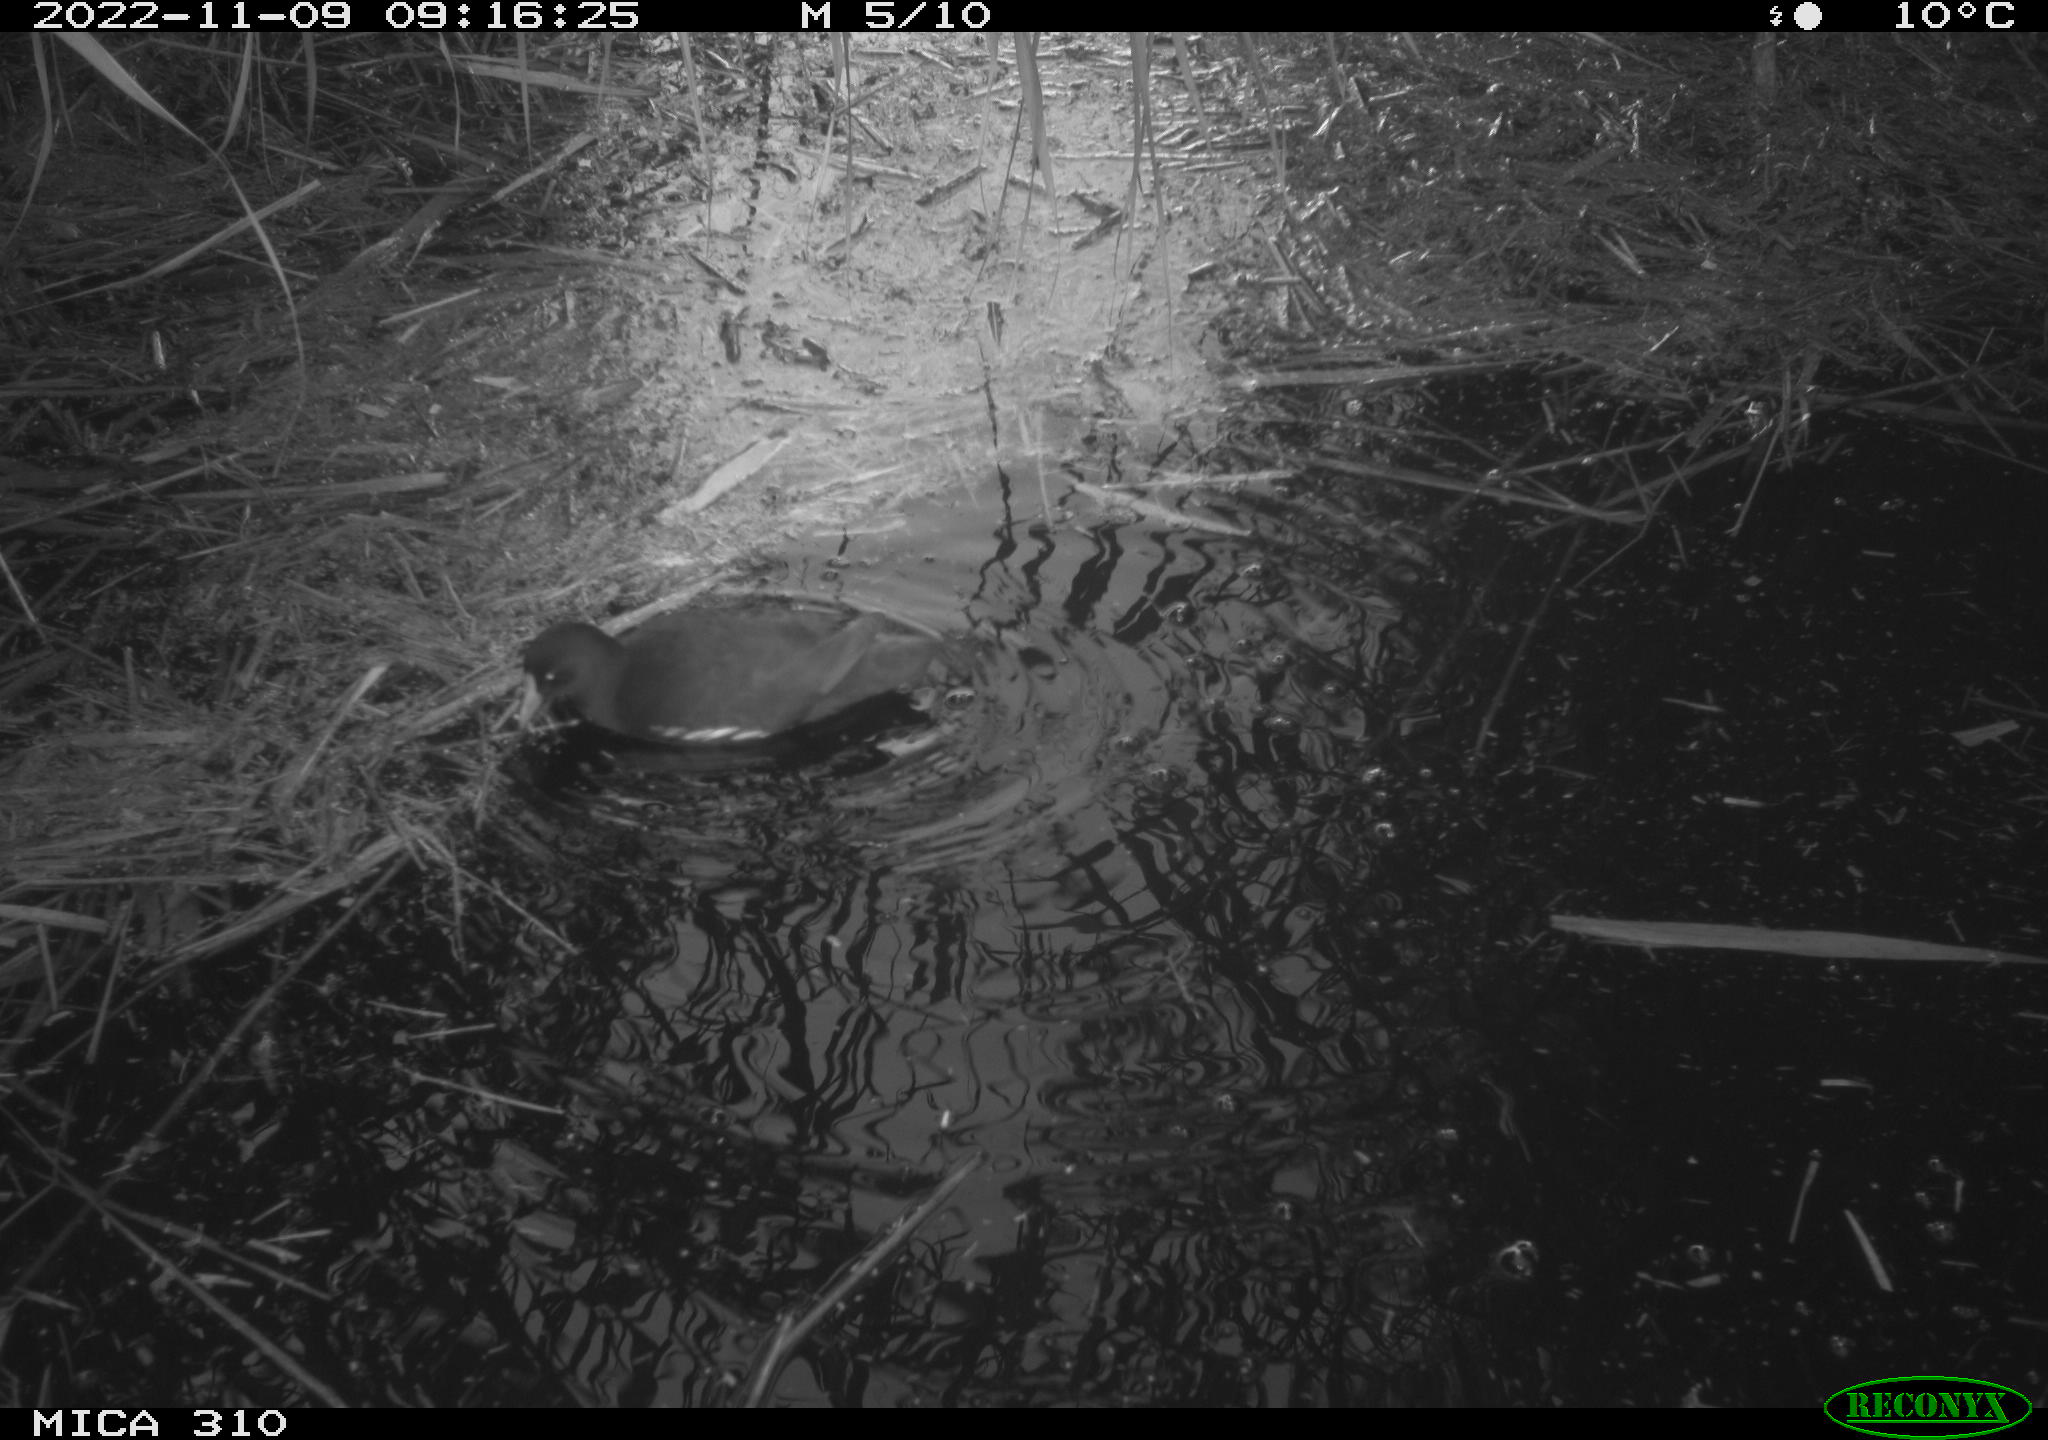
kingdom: Animalia
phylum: Chordata
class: Aves
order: Gruiformes
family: Rallidae
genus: Gallinula
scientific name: Gallinula chloropus
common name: Common moorhen
